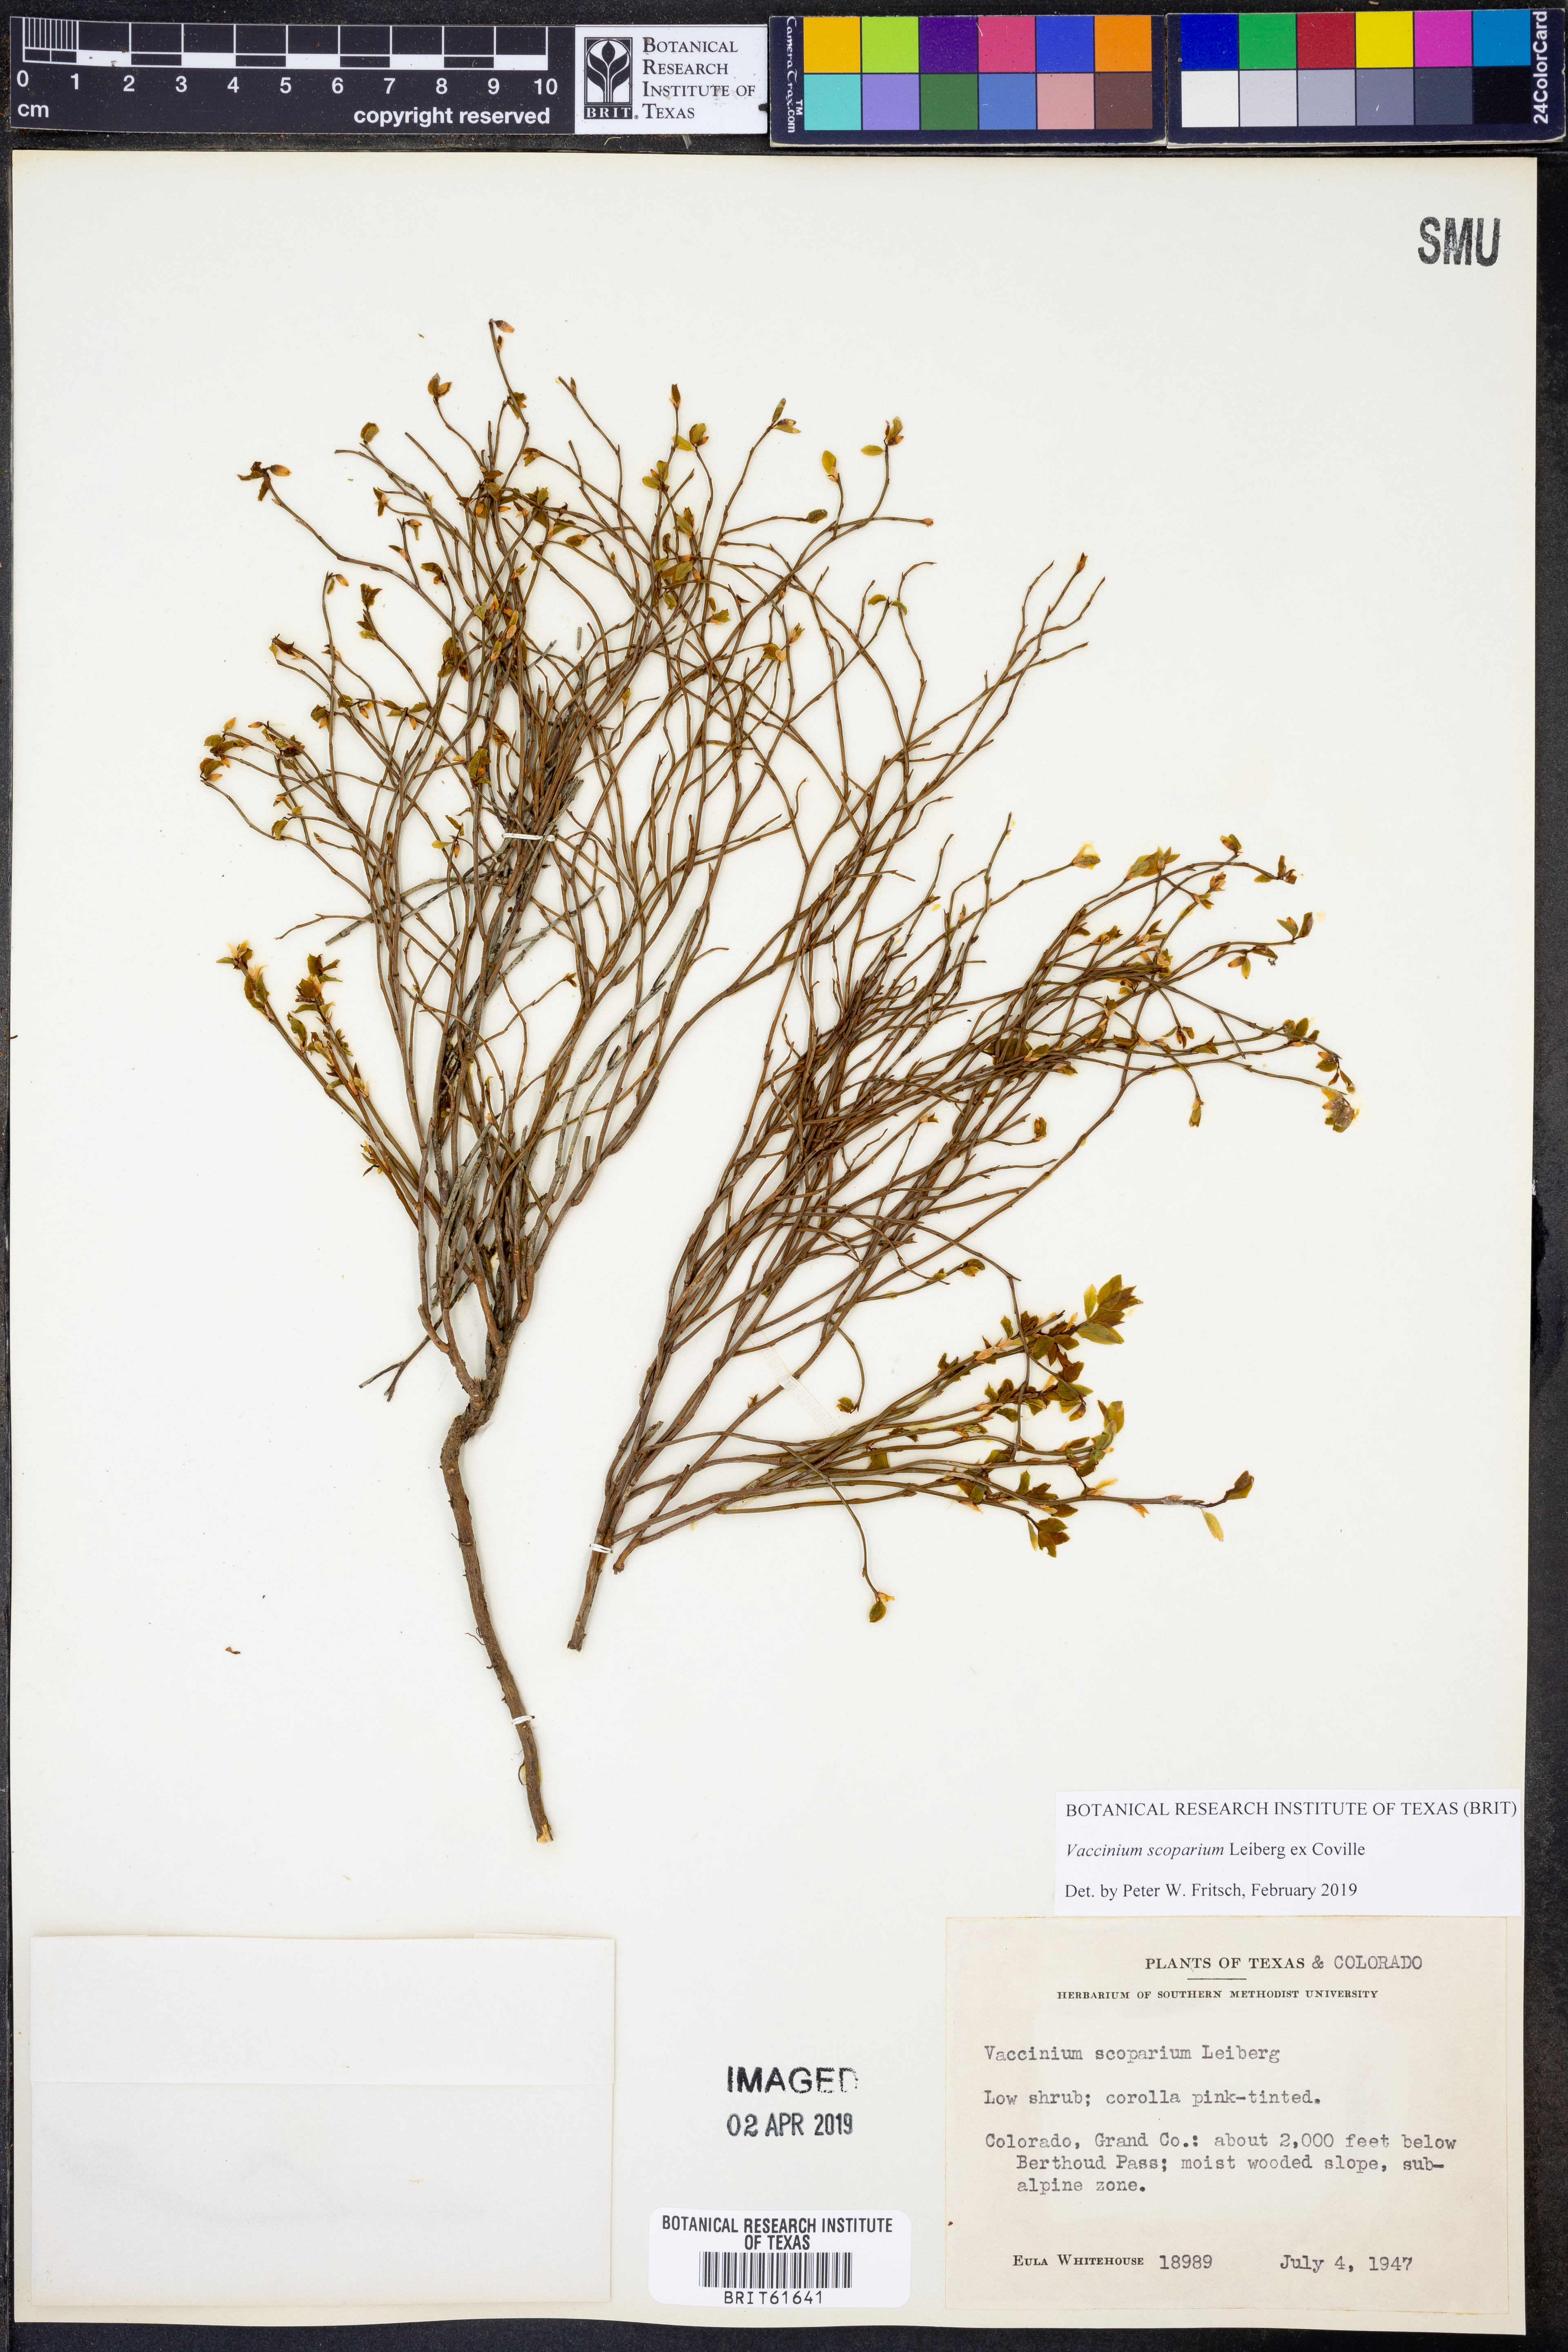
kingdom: Plantae
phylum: Tracheophyta
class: Magnoliopsida
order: Ericales
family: Ericaceae
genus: Vaccinium
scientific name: Vaccinium scoparium
